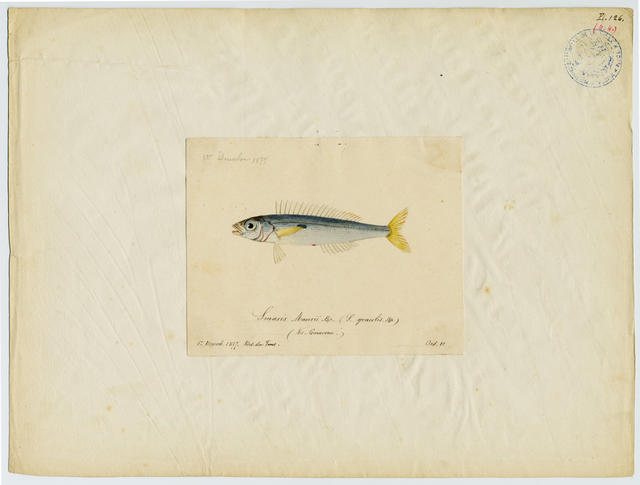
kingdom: Animalia
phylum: Chordata
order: Perciformes
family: Sparidae
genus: Spicara
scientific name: Spicara smaris
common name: Picarel
